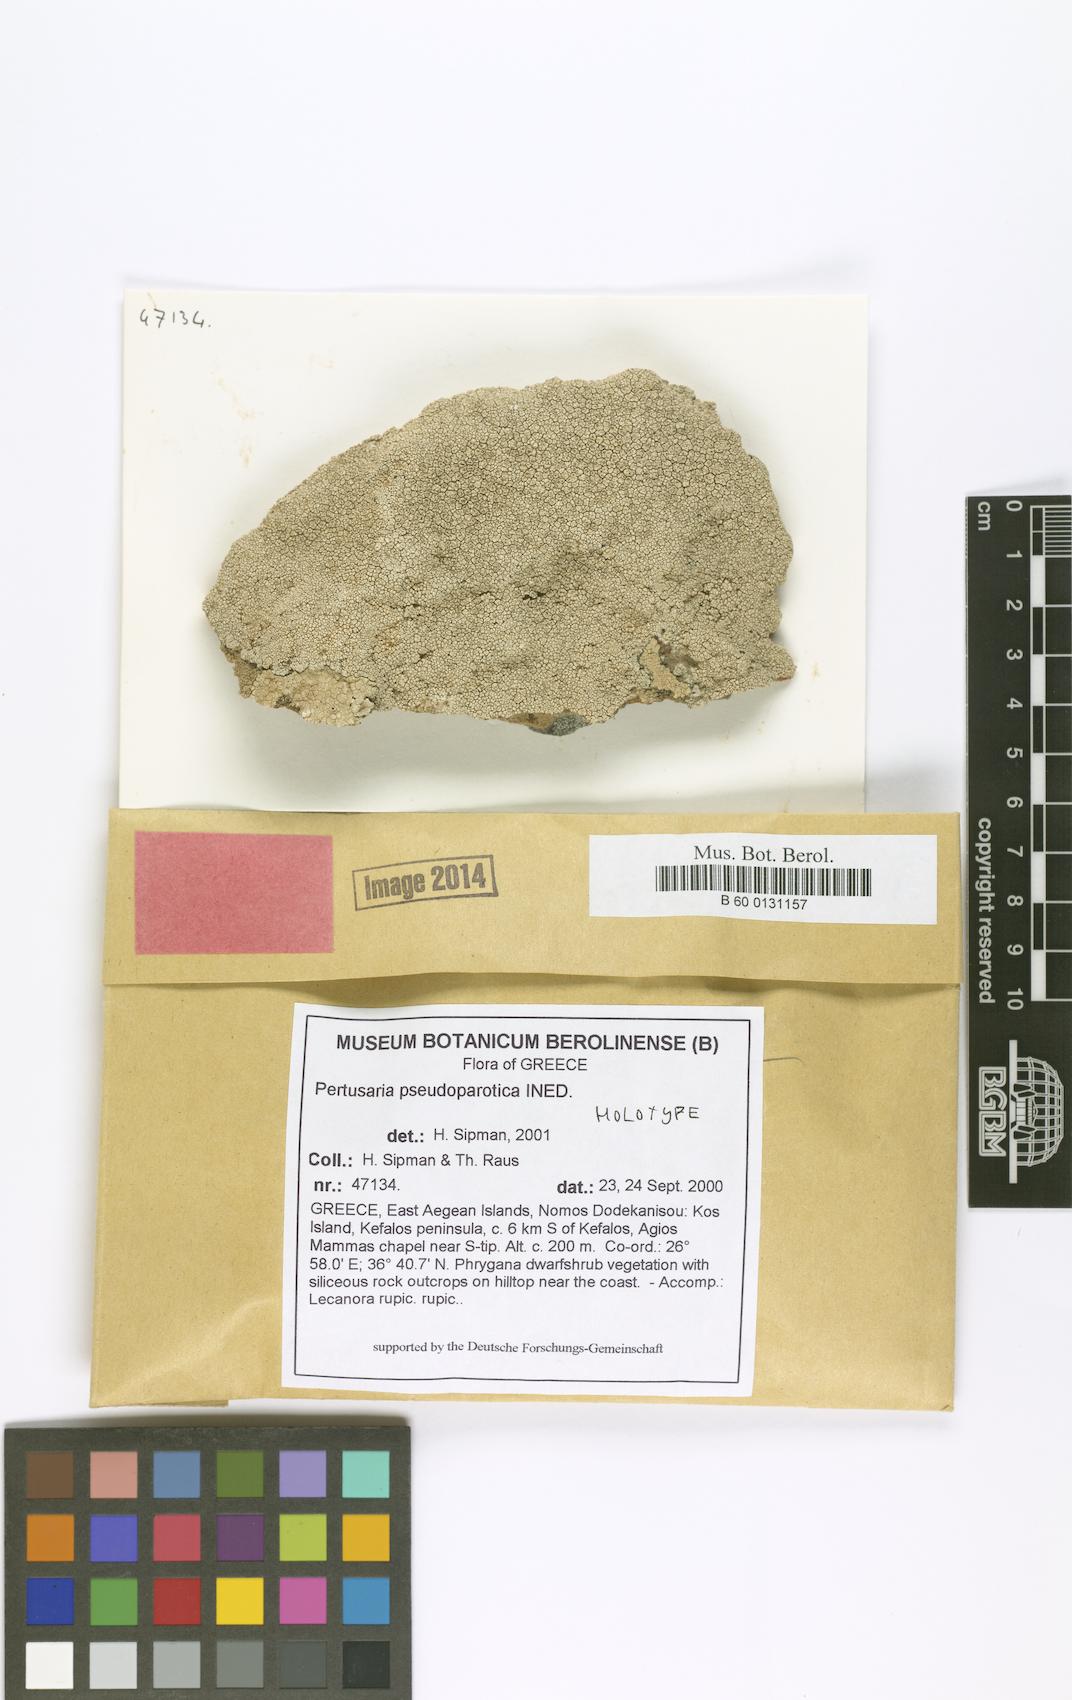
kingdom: Fungi
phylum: Ascomycota
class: Lecanoromycetes
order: Pertusariales
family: Pertusariaceae
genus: Pertusaria
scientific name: Pertusaria pseudoparotica
